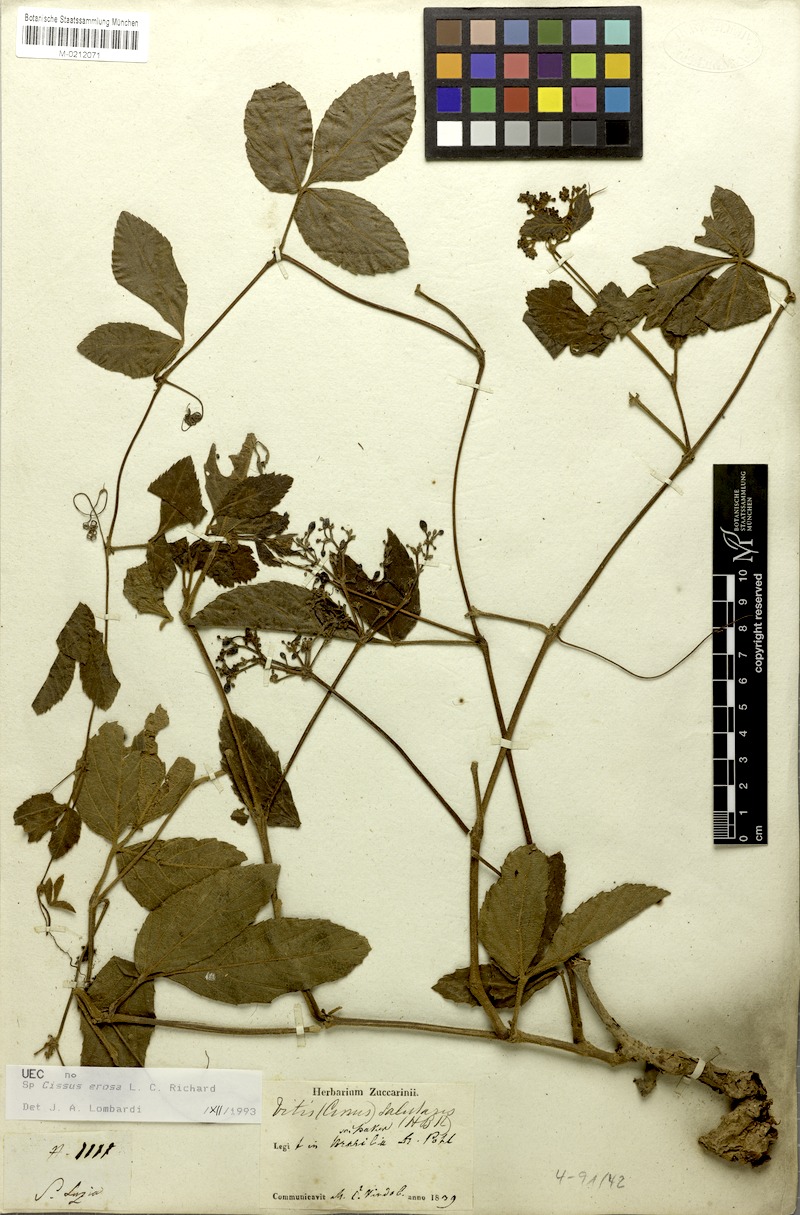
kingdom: Plantae
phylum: Tracheophyta
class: Magnoliopsida
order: Vitales
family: Vitaceae
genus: Cissus
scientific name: Cissus erosa
